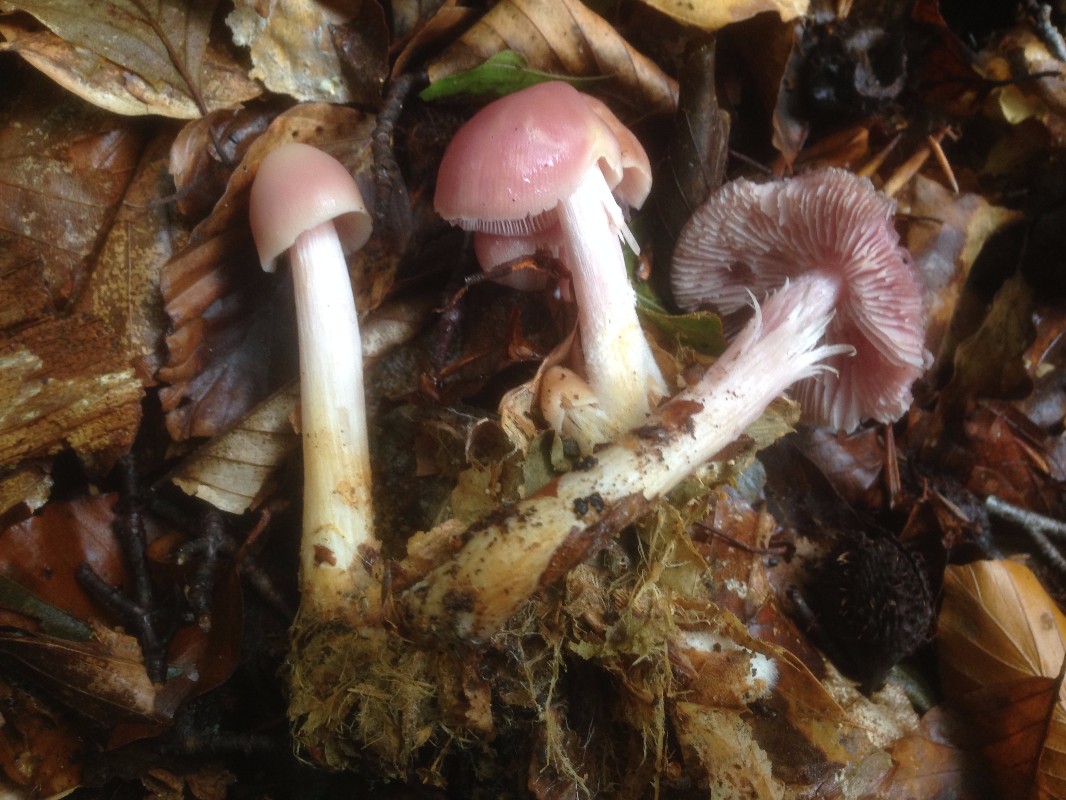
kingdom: Fungi
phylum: Basidiomycota
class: Agaricomycetes
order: Agaricales
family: Mycenaceae
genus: Mycena
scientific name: Mycena rosea
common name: rosa huesvamp
